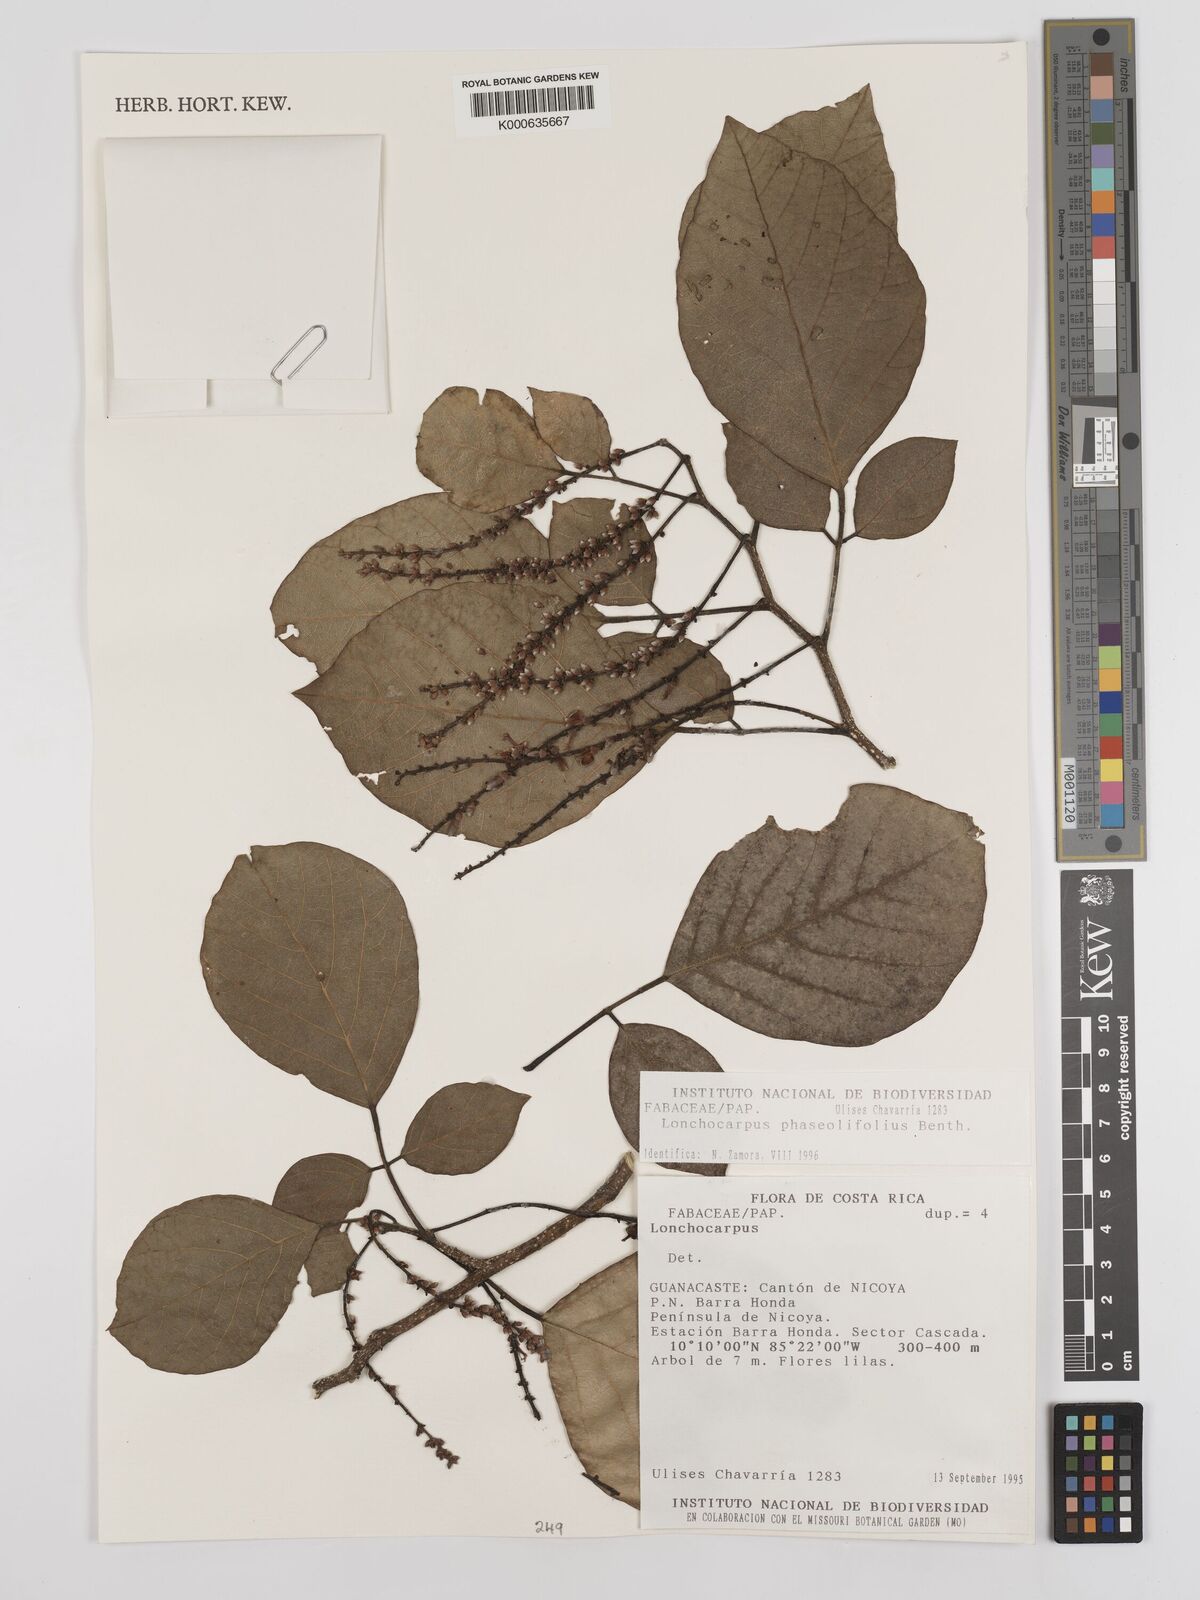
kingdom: Plantae
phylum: Tracheophyta
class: Magnoliopsida
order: Fabales
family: Fabaceae
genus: Lonchocarpus
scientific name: Lonchocarpus phaseolifolius
